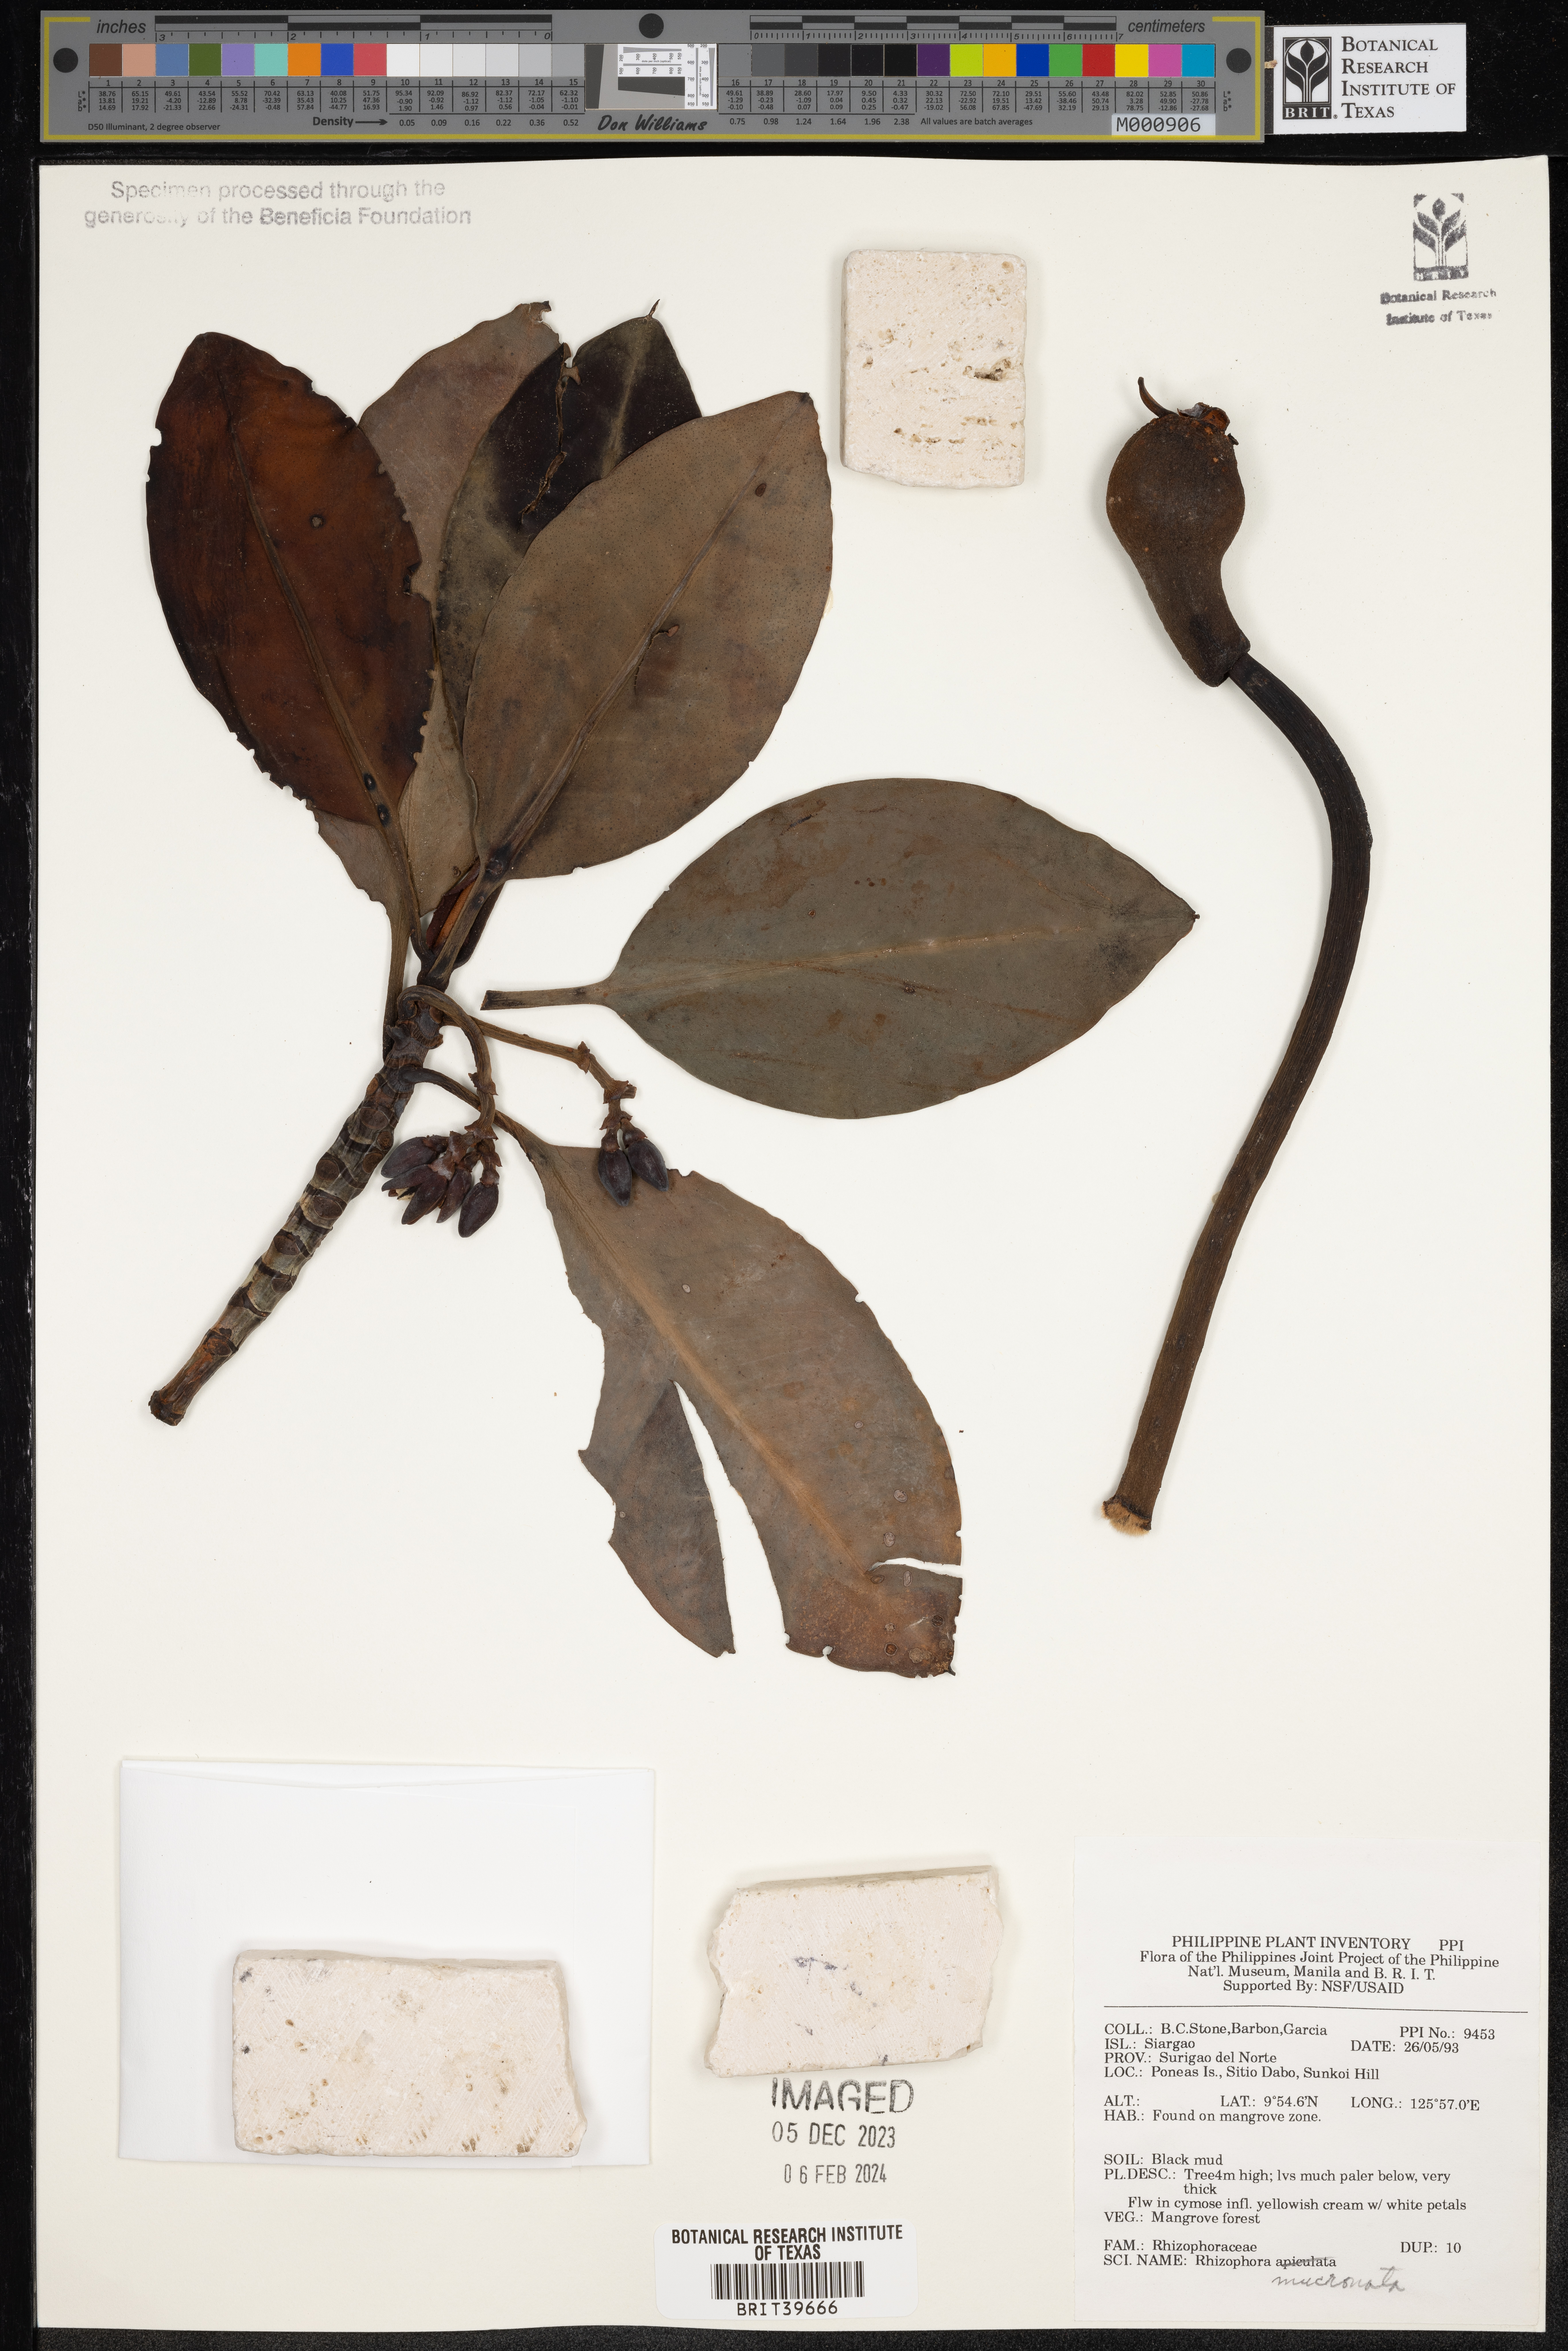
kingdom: Plantae
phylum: Tracheophyta
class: Magnoliopsida
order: Malpighiales
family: Rhizophoraceae
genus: Rhizophora
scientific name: Rhizophora mucronata
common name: Loop-root mangrove
